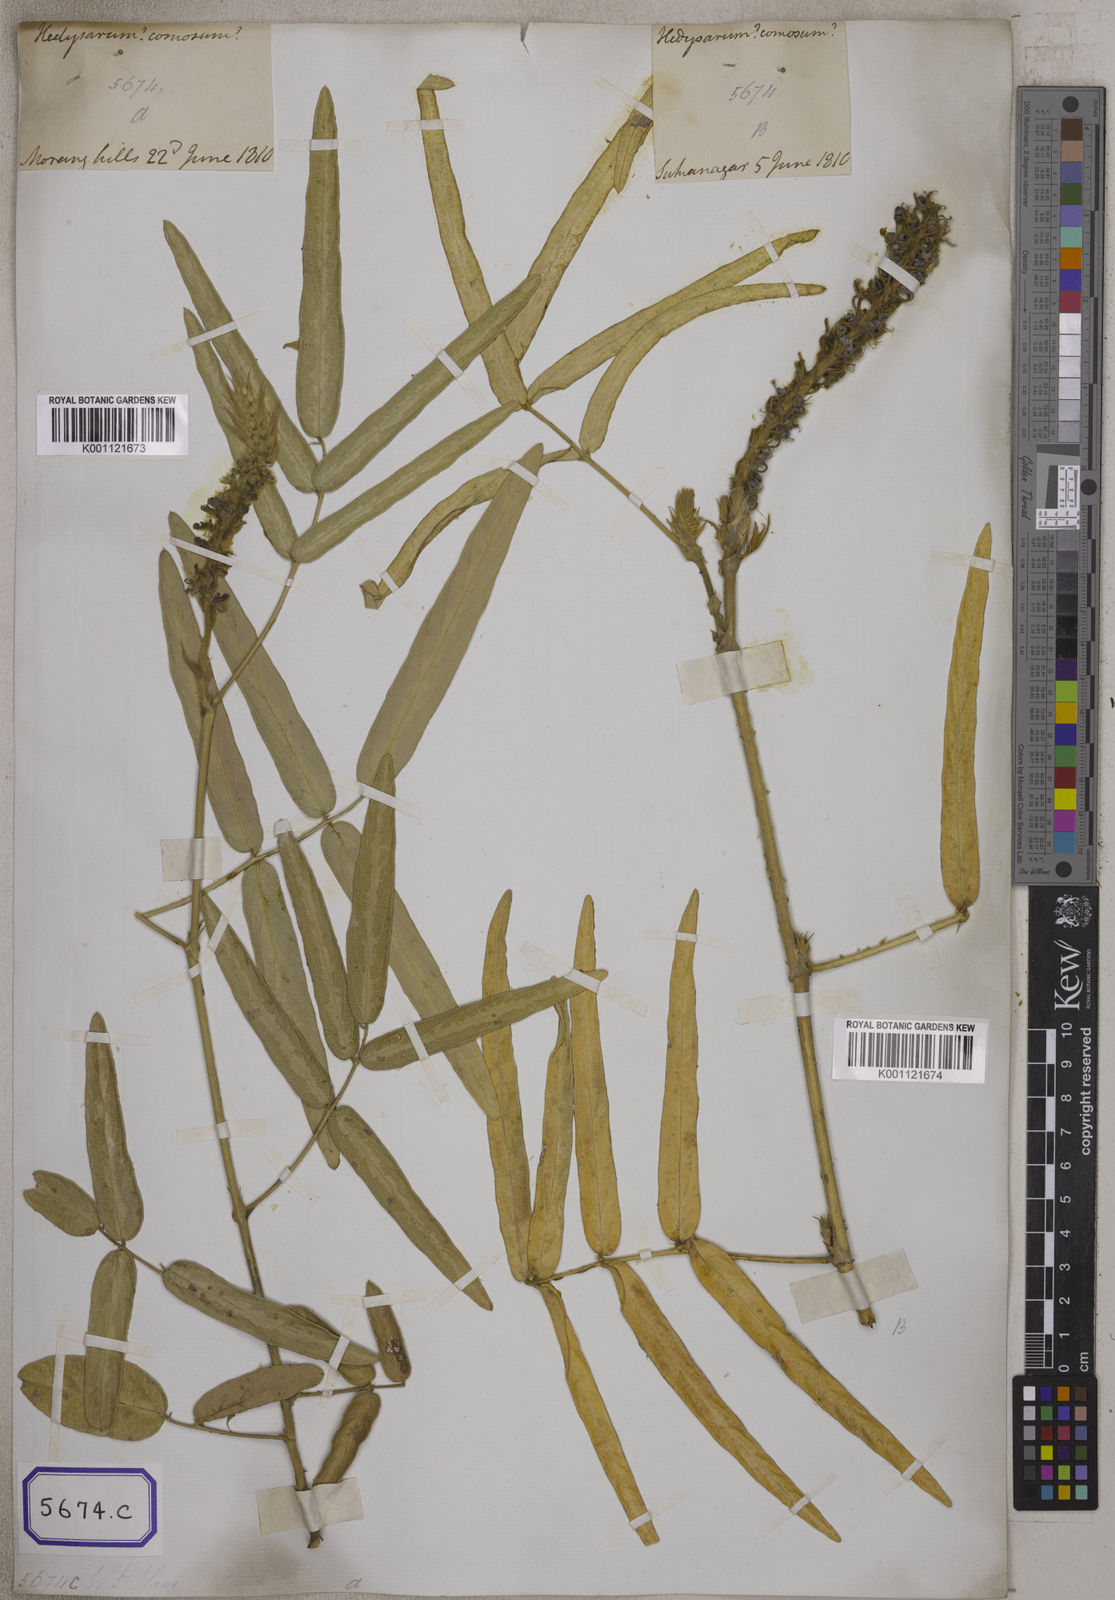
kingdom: Plantae
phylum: Tracheophyta
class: Magnoliopsida
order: Fabales
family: Fabaceae
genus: Uraria
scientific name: Uraria
